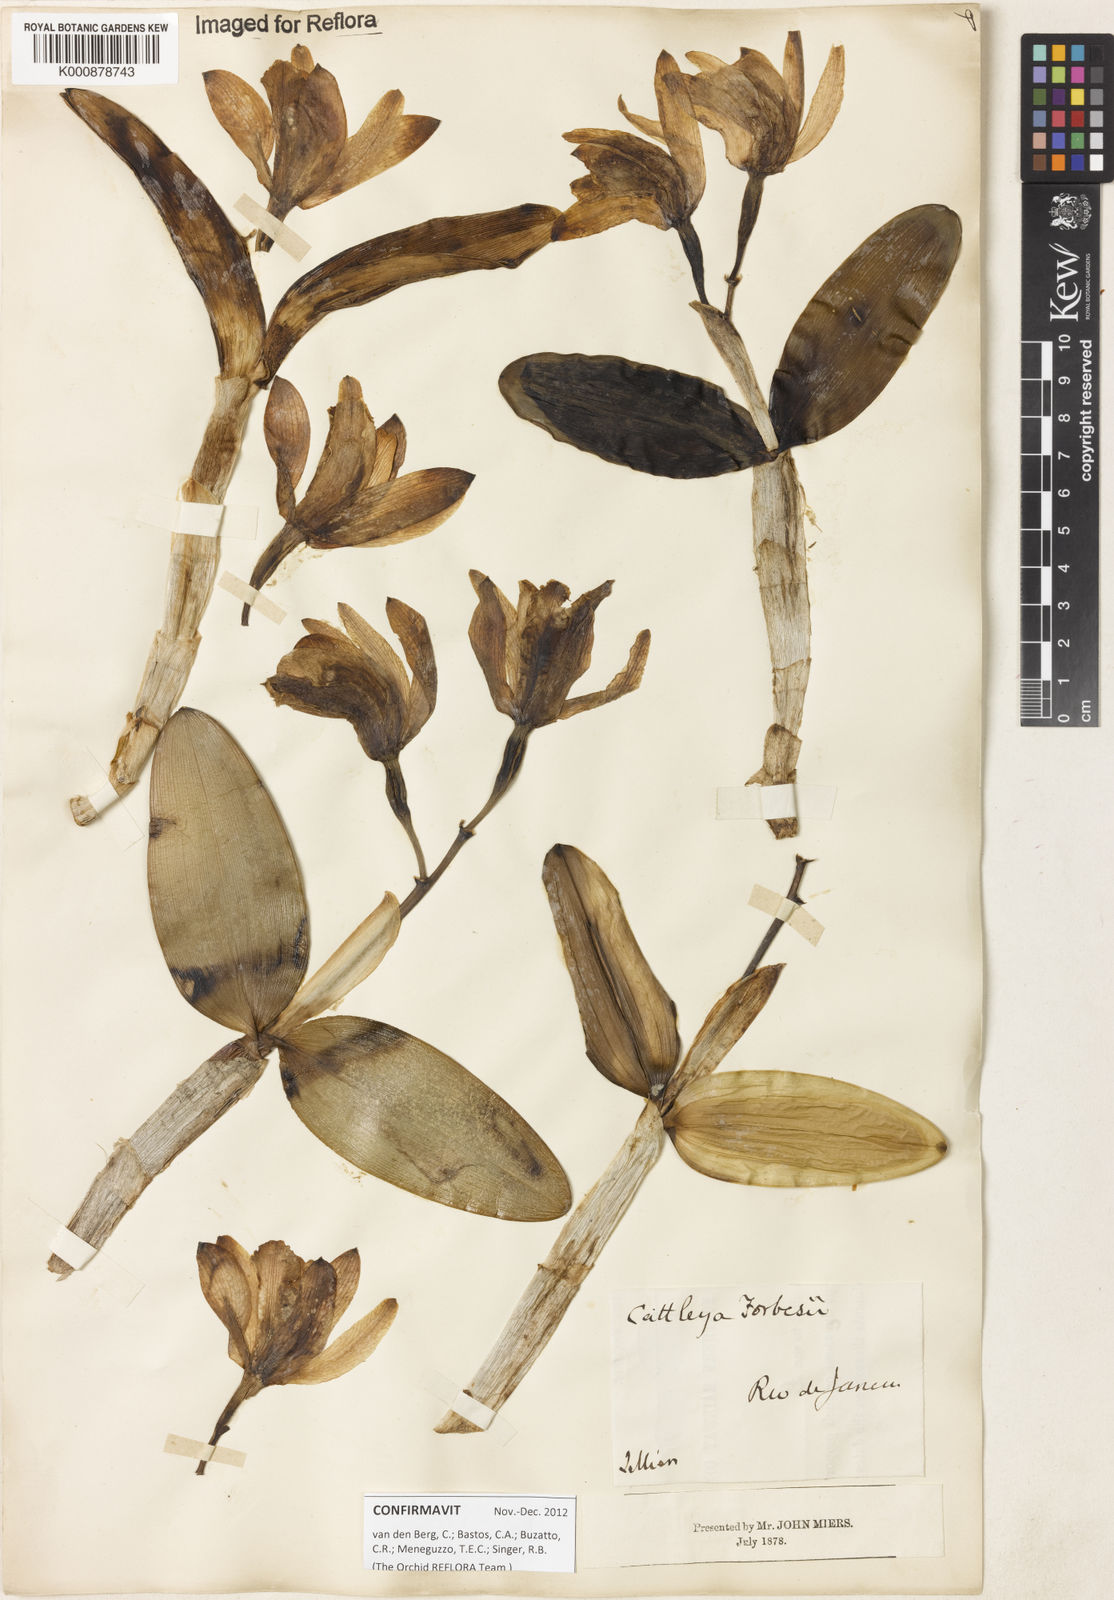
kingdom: Plantae
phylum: Tracheophyta
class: Liliopsida
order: Asparagales
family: Orchidaceae
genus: Cattleya
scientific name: Cattleya forbesii
